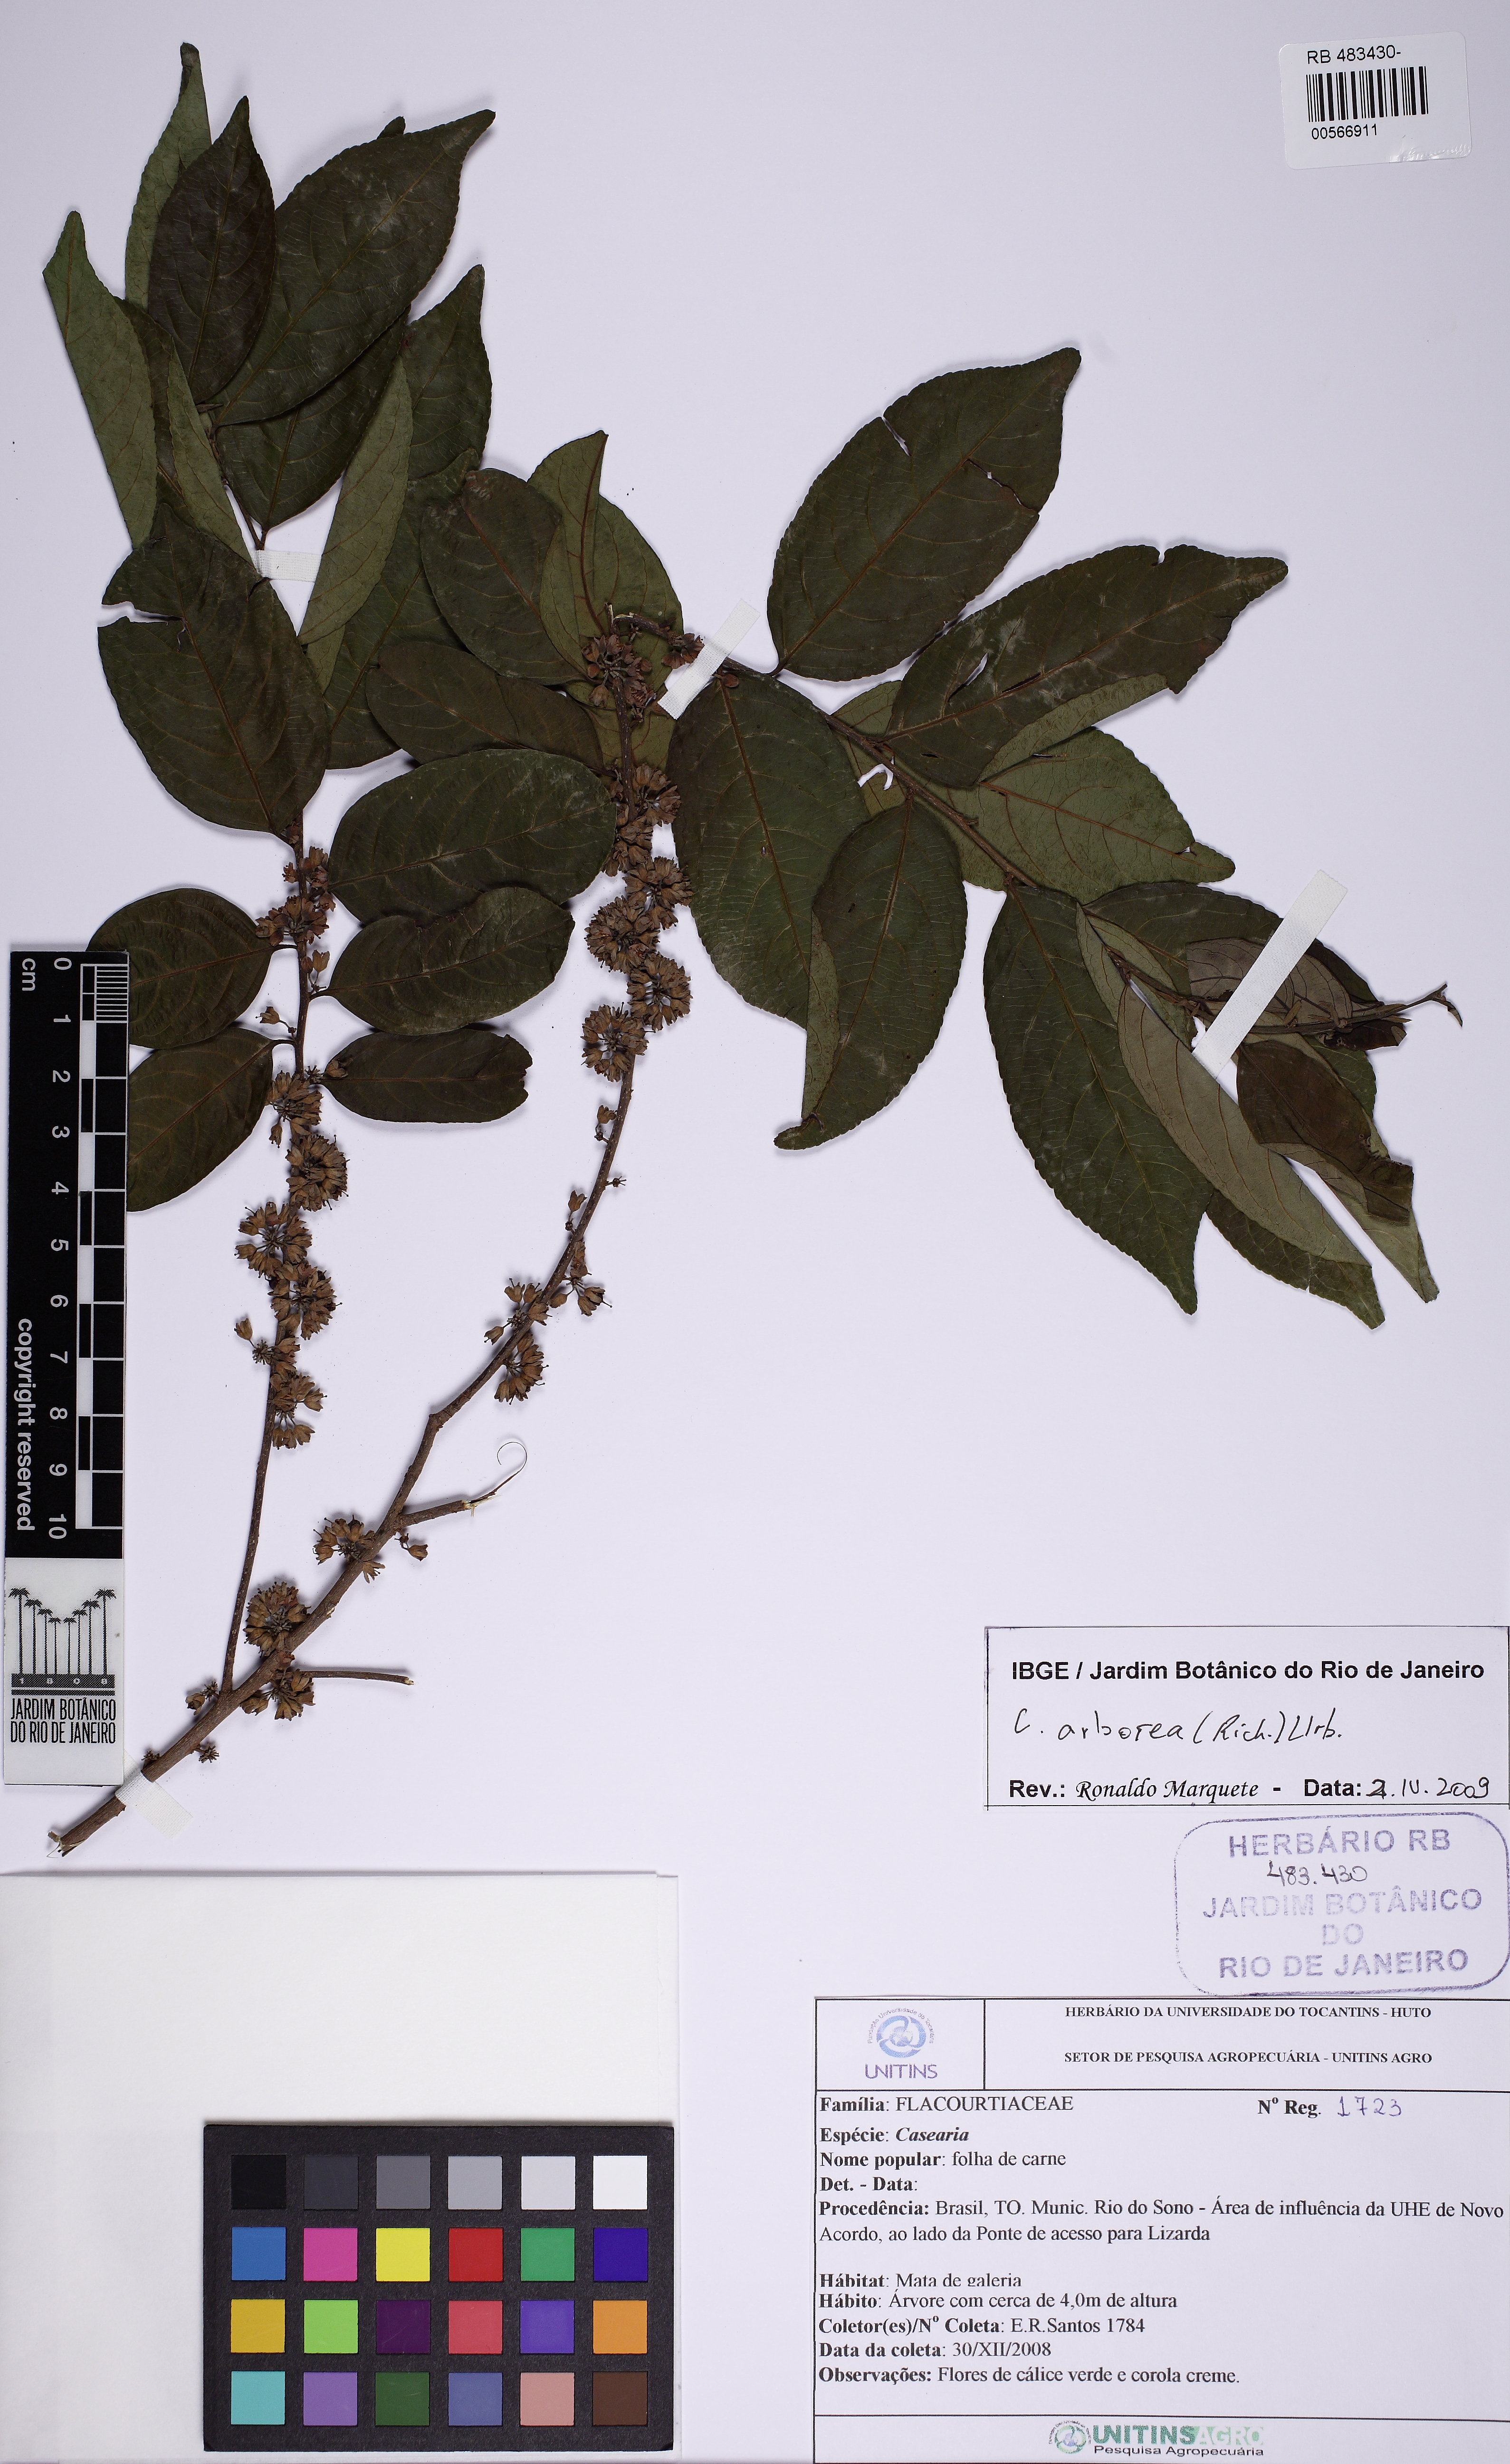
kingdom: Plantae
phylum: Tracheophyta
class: Magnoliopsida
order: Malpighiales
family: Salicaceae
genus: Casearia
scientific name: Casearia arborea
